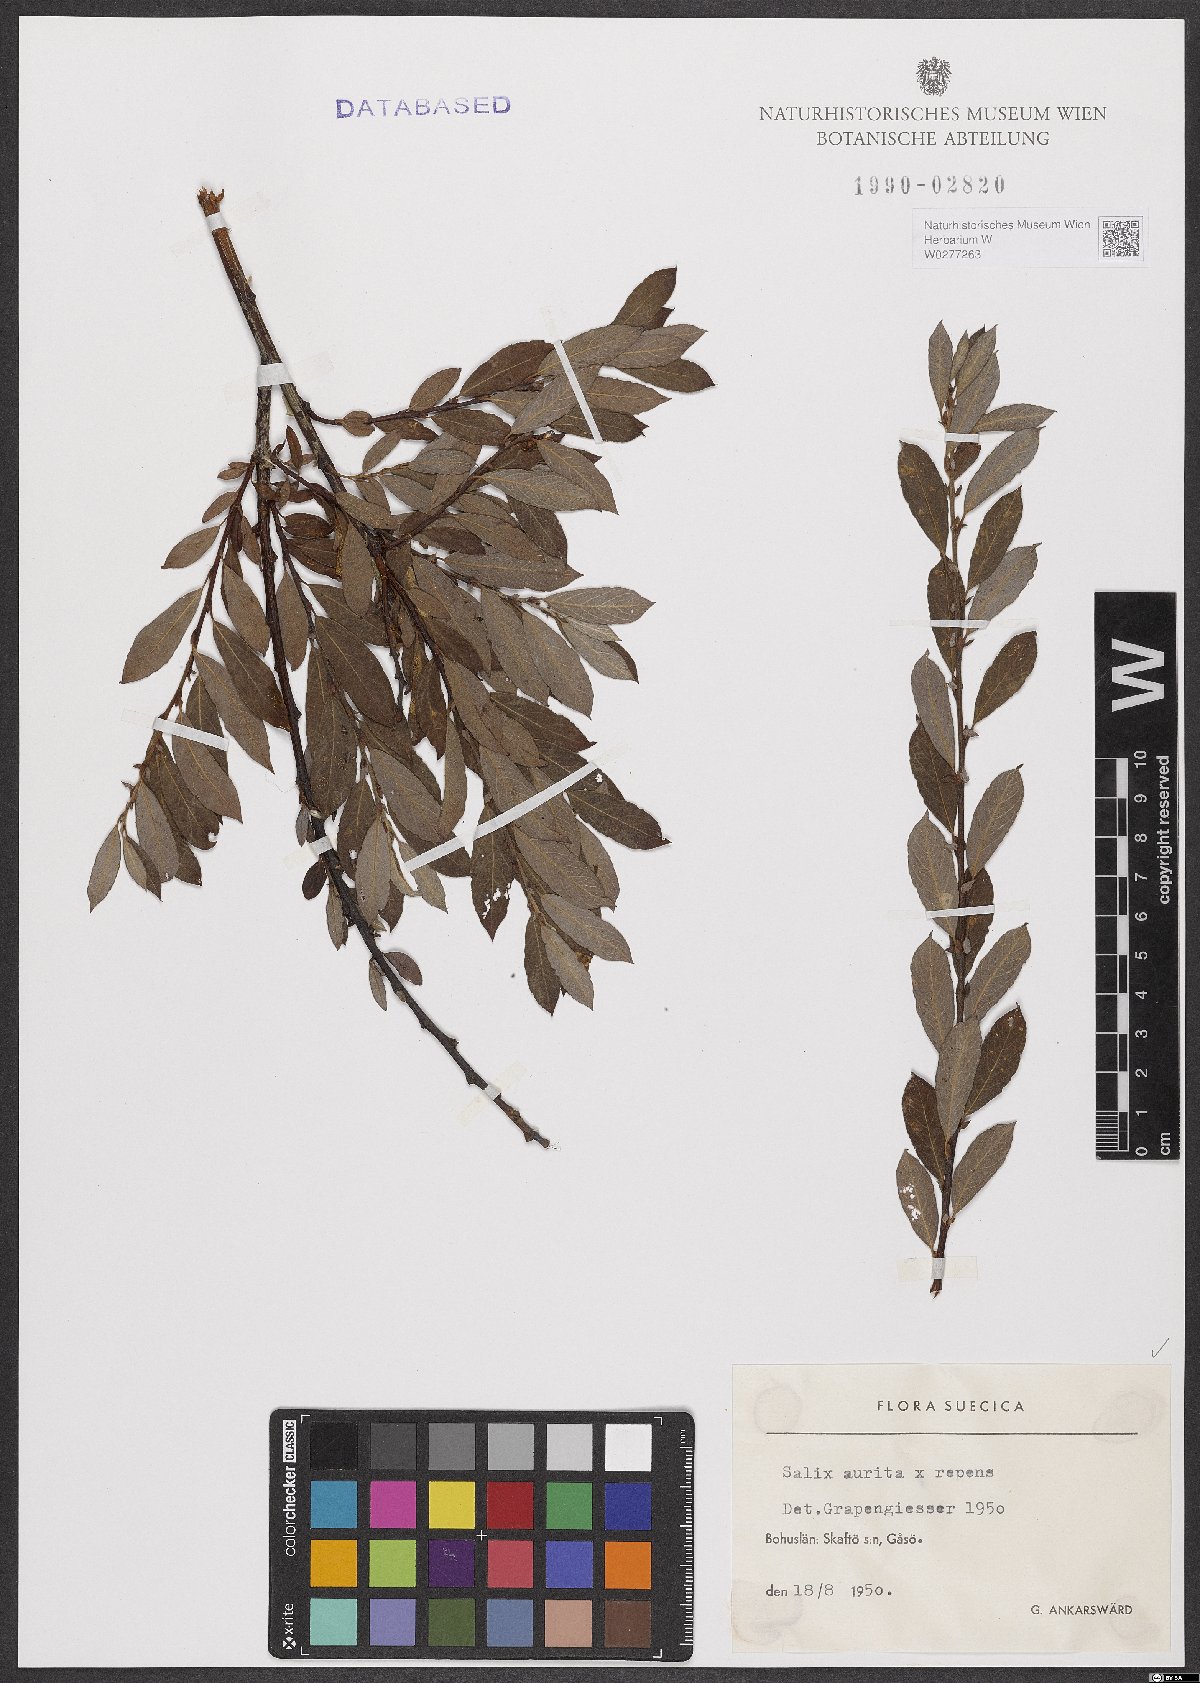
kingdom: Plantae
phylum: Tracheophyta
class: Magnoliopsida
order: Malpighiales
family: Salicaceae
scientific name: Salicaceae
